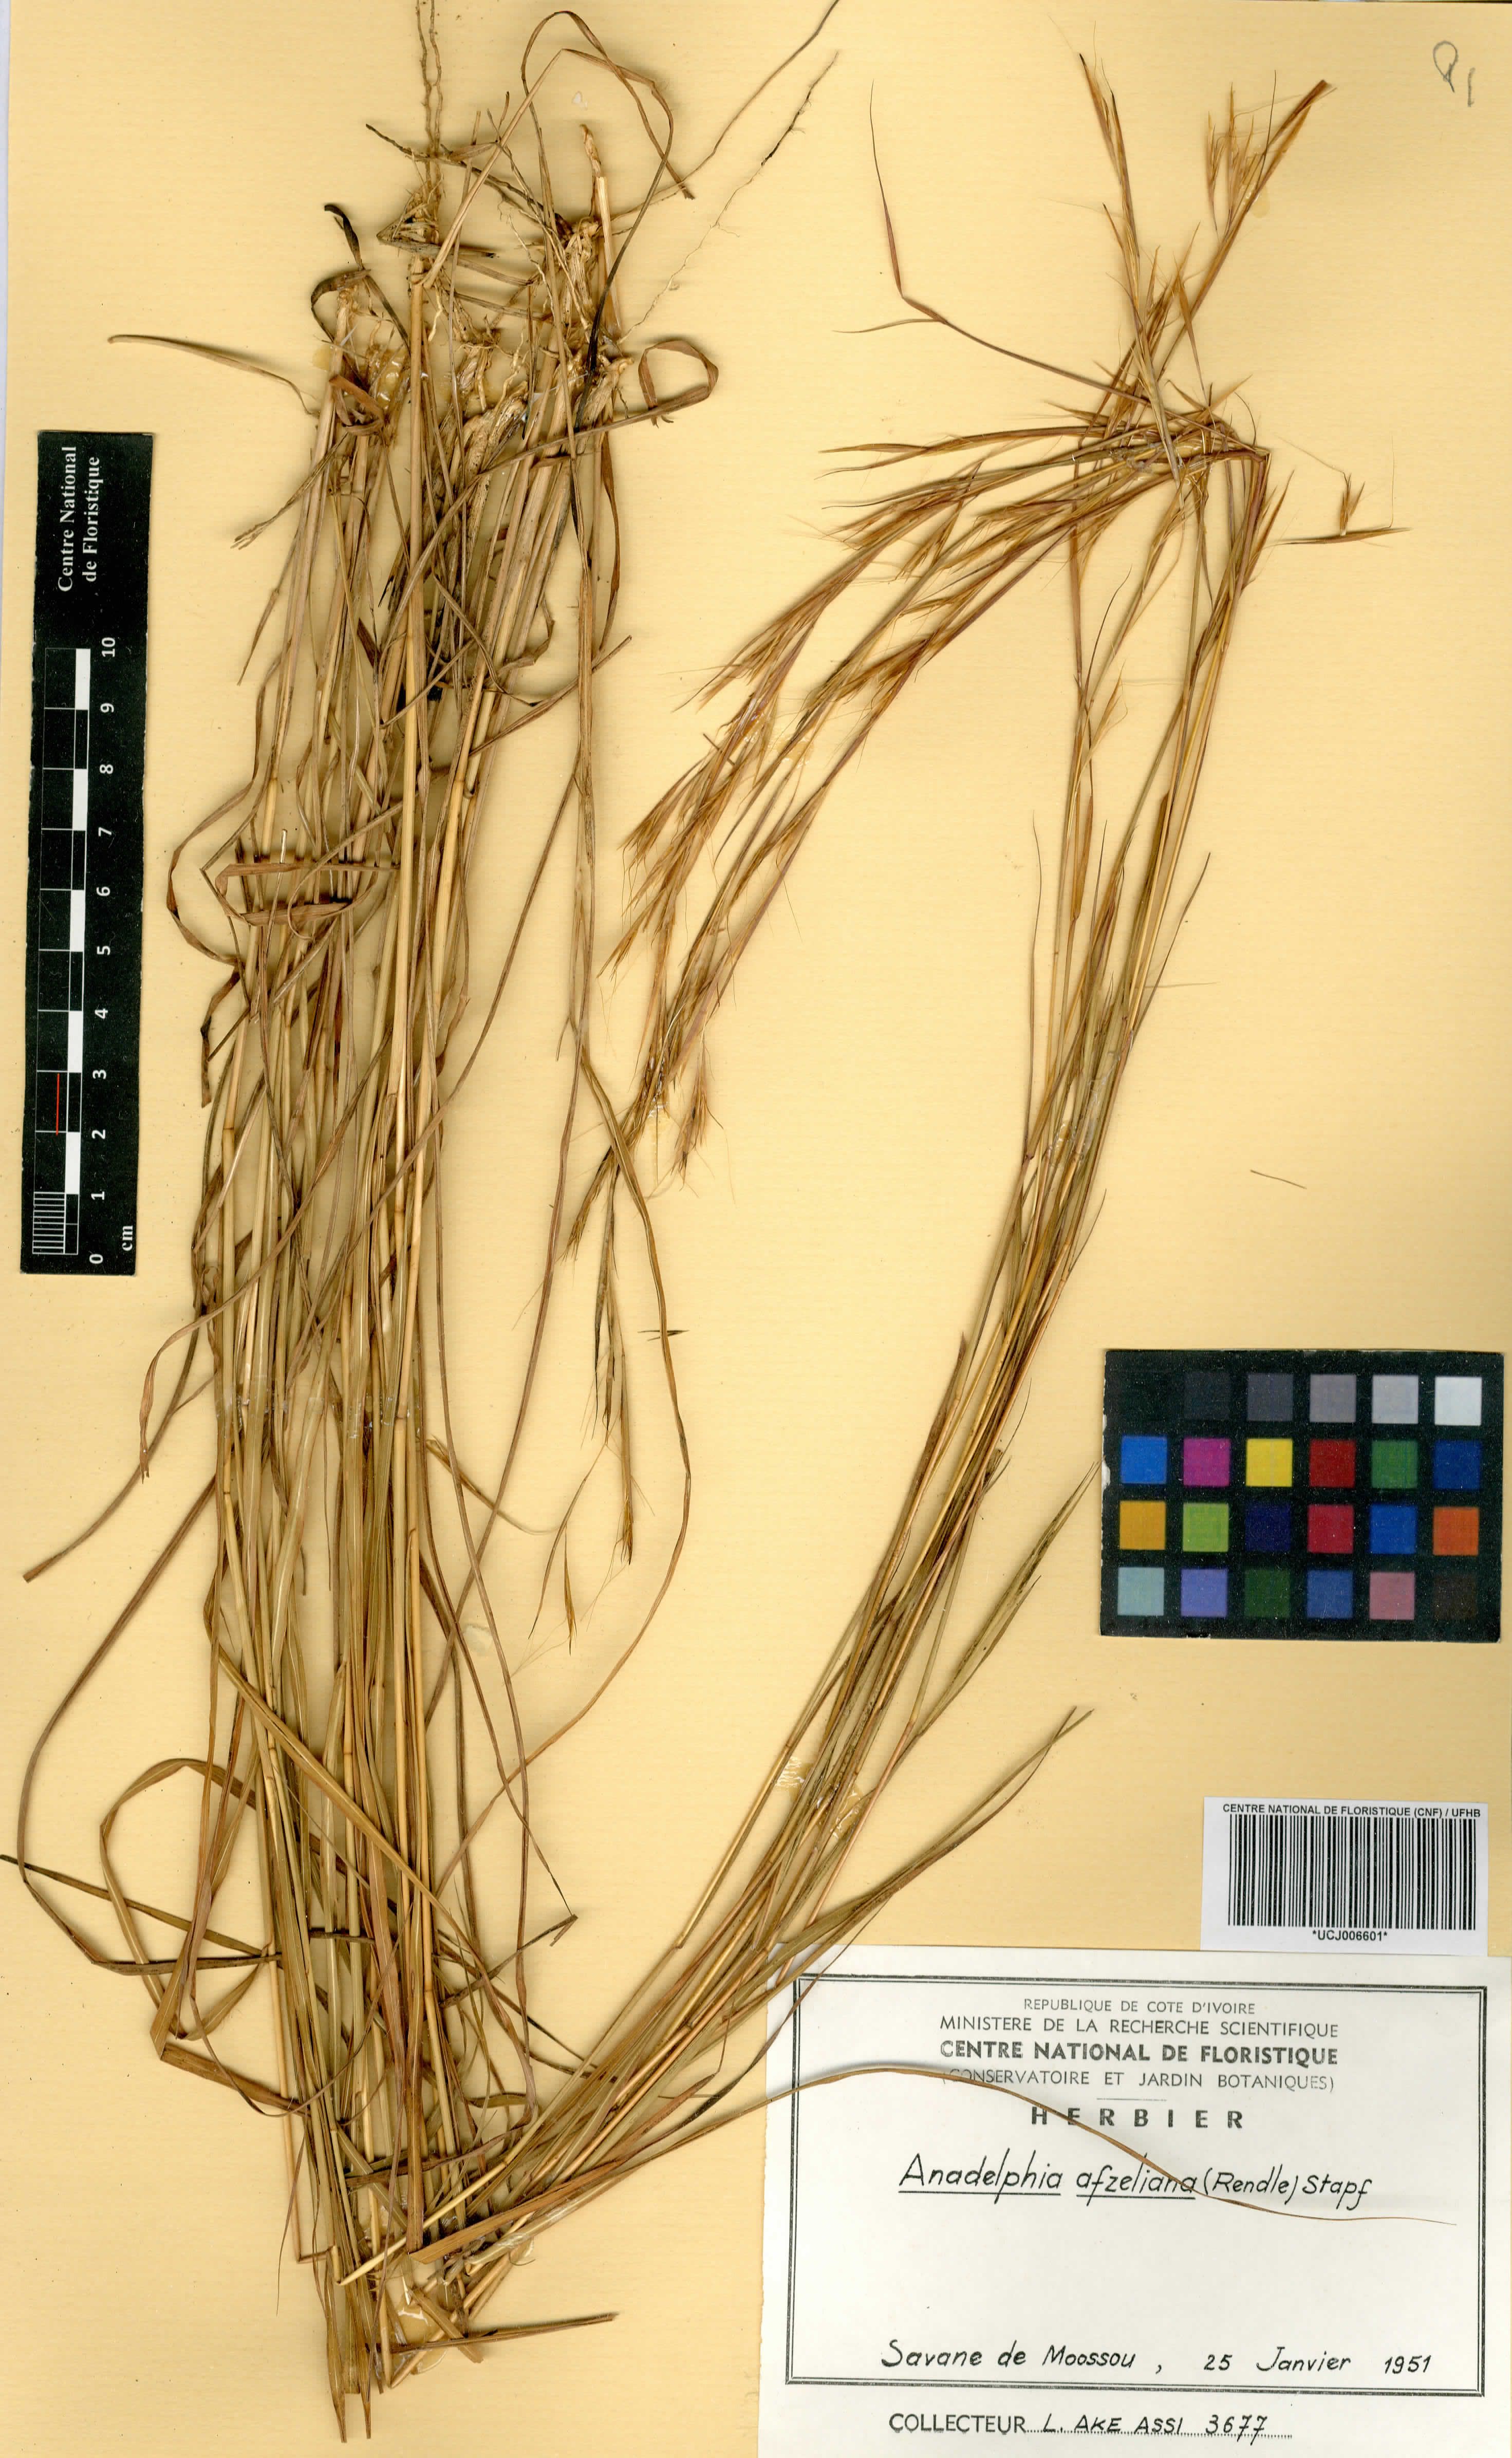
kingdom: Plantae
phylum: Tracheophyta
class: Liliopsida
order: Poales
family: Poaceae
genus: Anadelphia
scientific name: Anadelphia afzeliana
